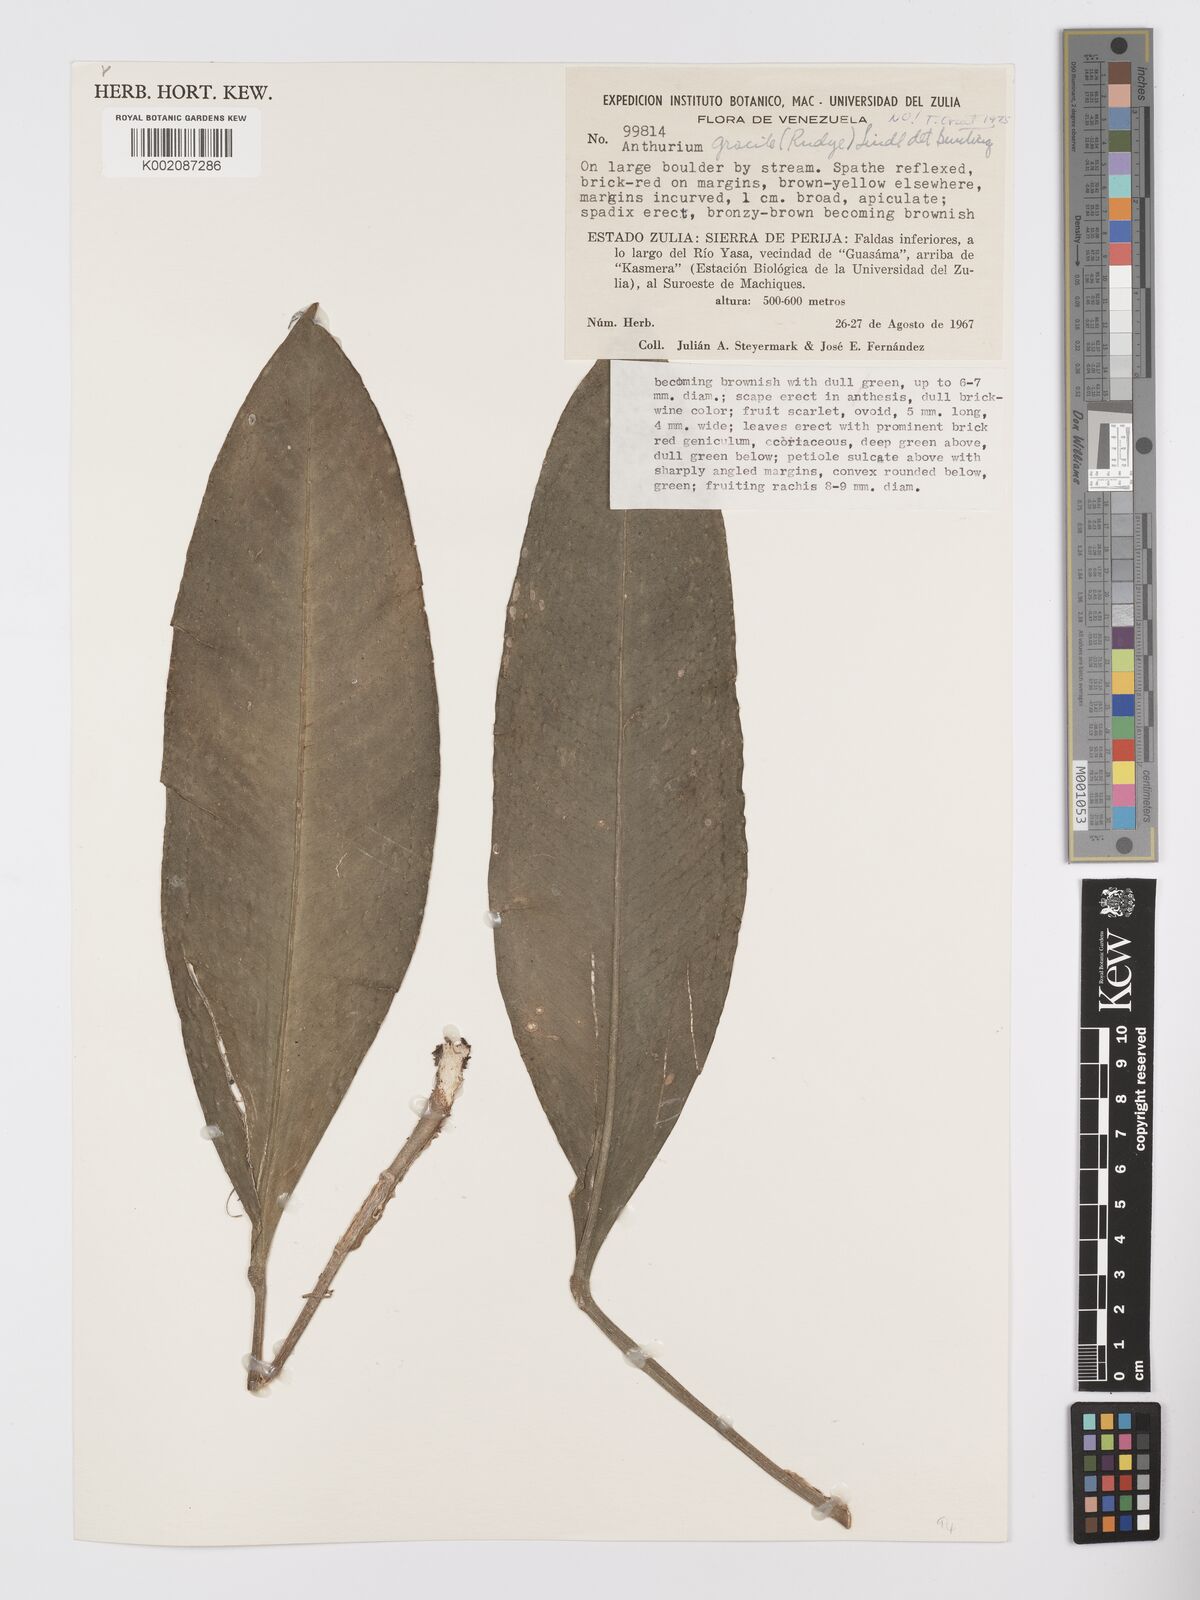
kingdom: Plantae
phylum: Tracheophyta
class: Liliopsida
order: Alismatales
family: Araceae
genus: Anthurium
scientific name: Anthurium
